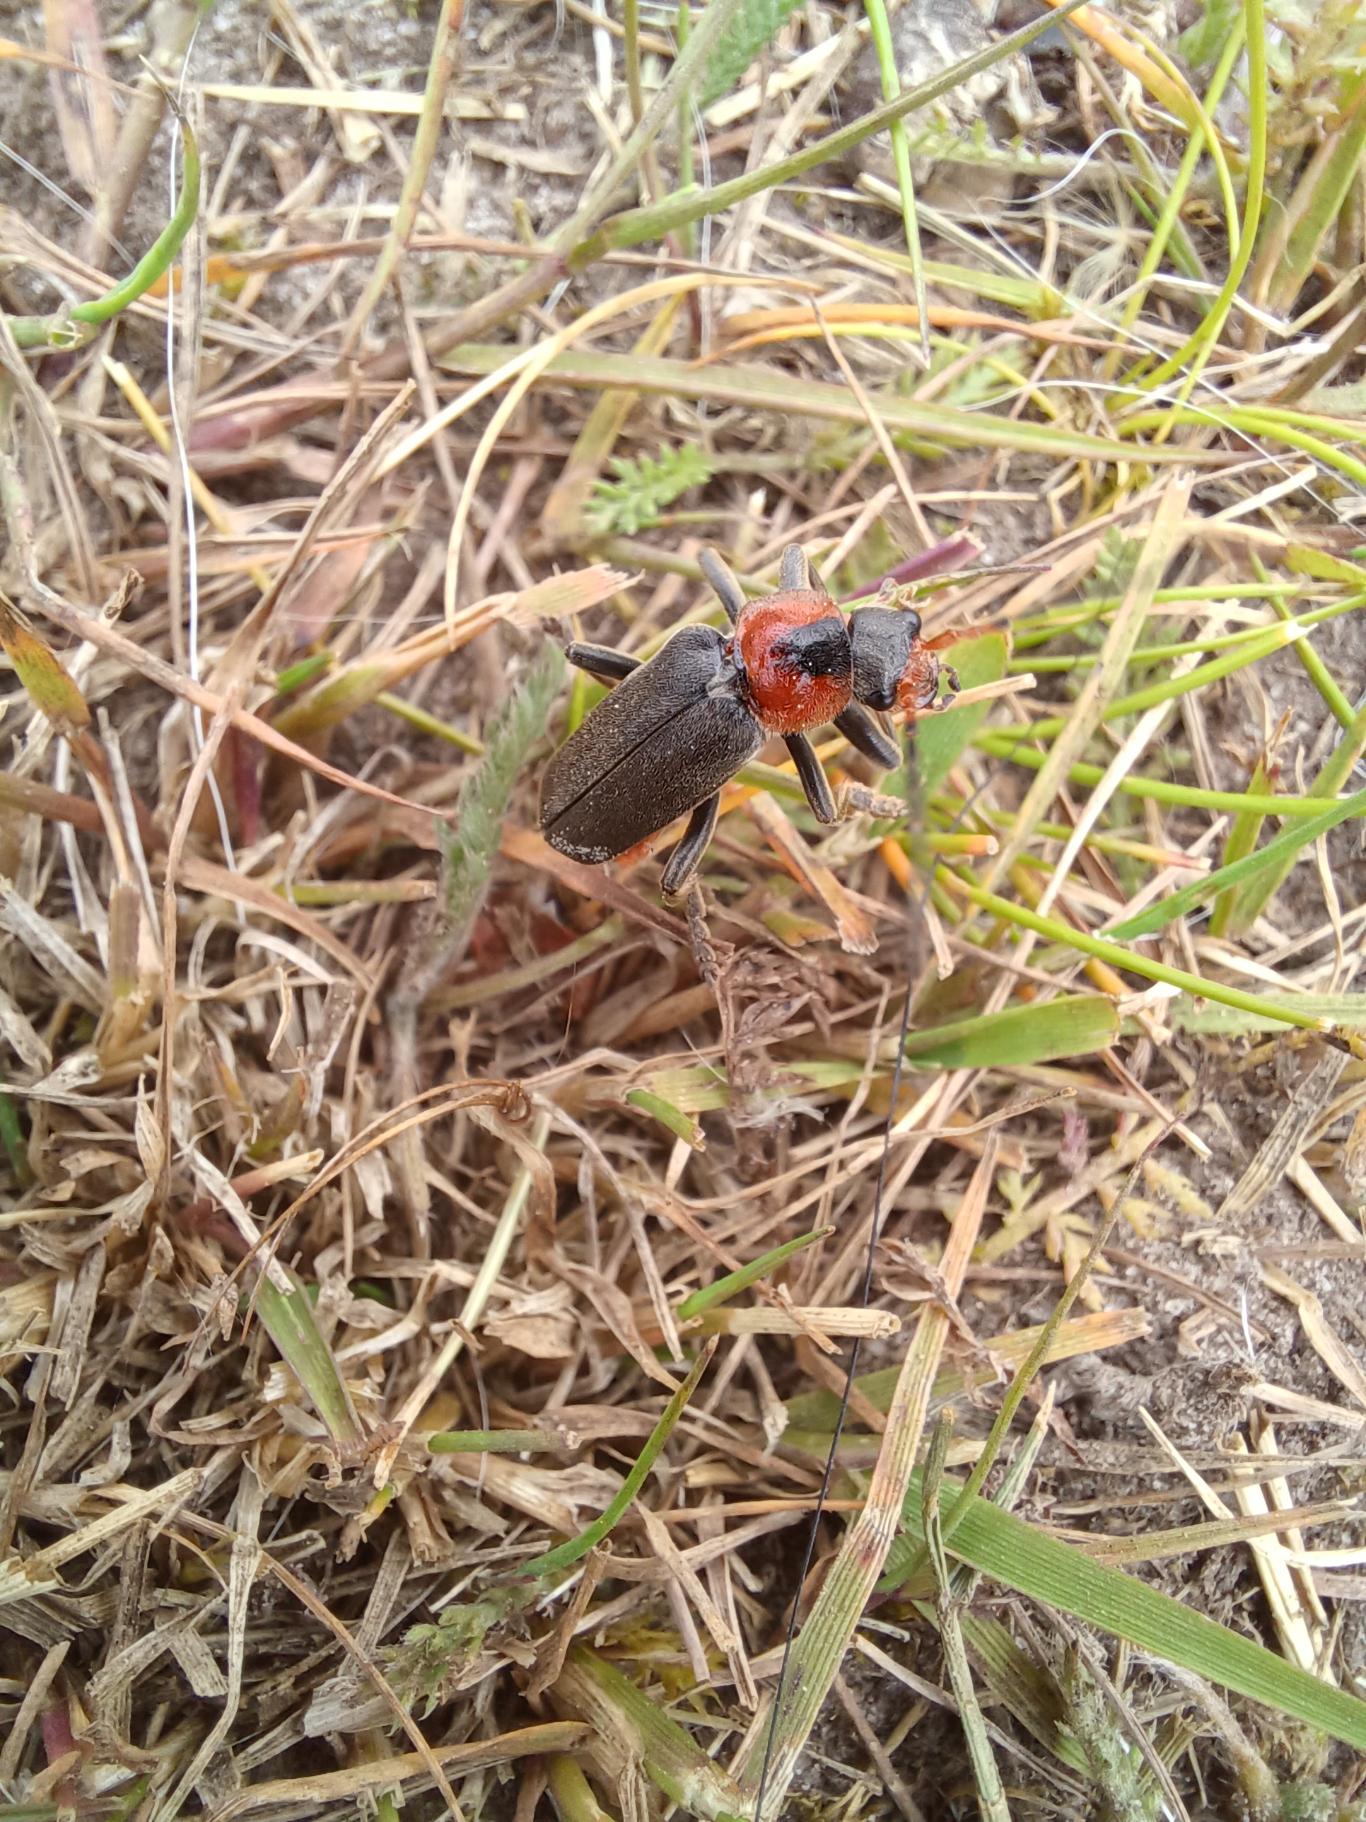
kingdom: Animalia
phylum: Arthropoda
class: Insecta
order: Coleoptera
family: Cantharidae
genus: Cantharis
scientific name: Cantharis fusca
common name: Stor blødvinge
